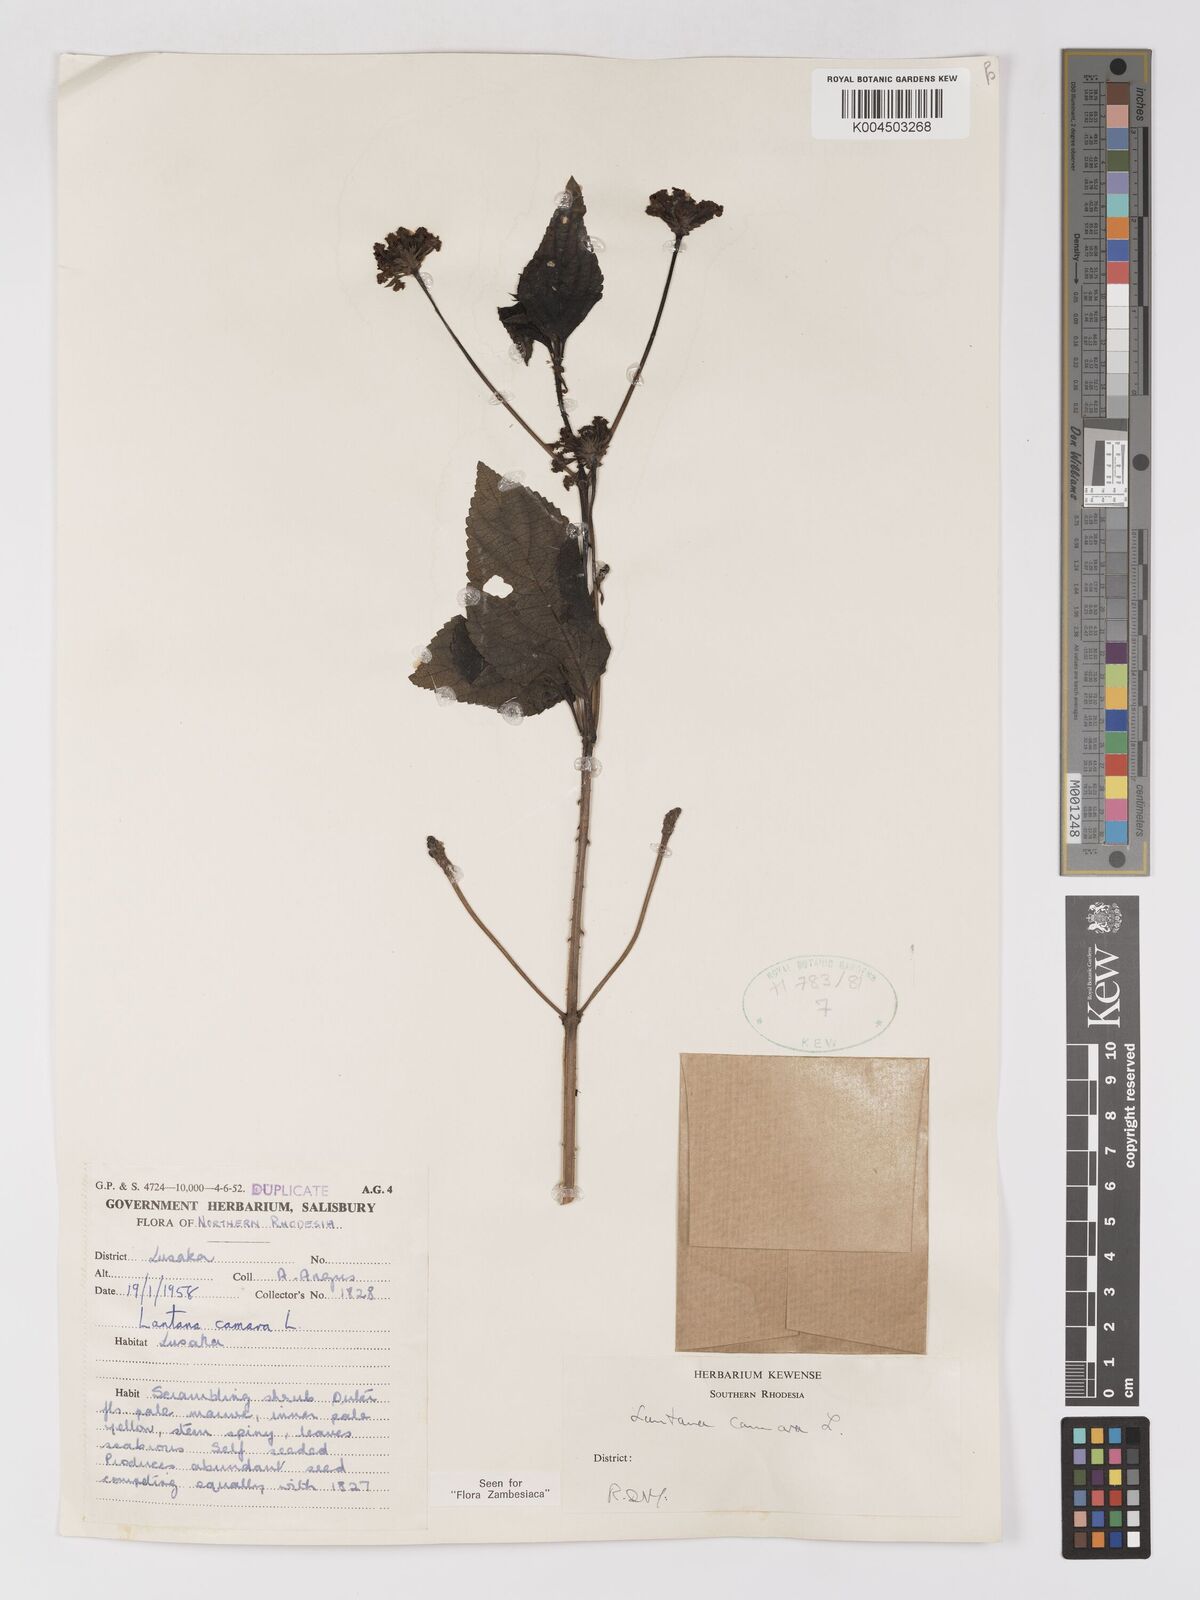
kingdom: Plantae
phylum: Tracheophyta
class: Magnoliopsida
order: Lamiales
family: Verbenaceae
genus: Lantana
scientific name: Lantana camara
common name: Lantana
